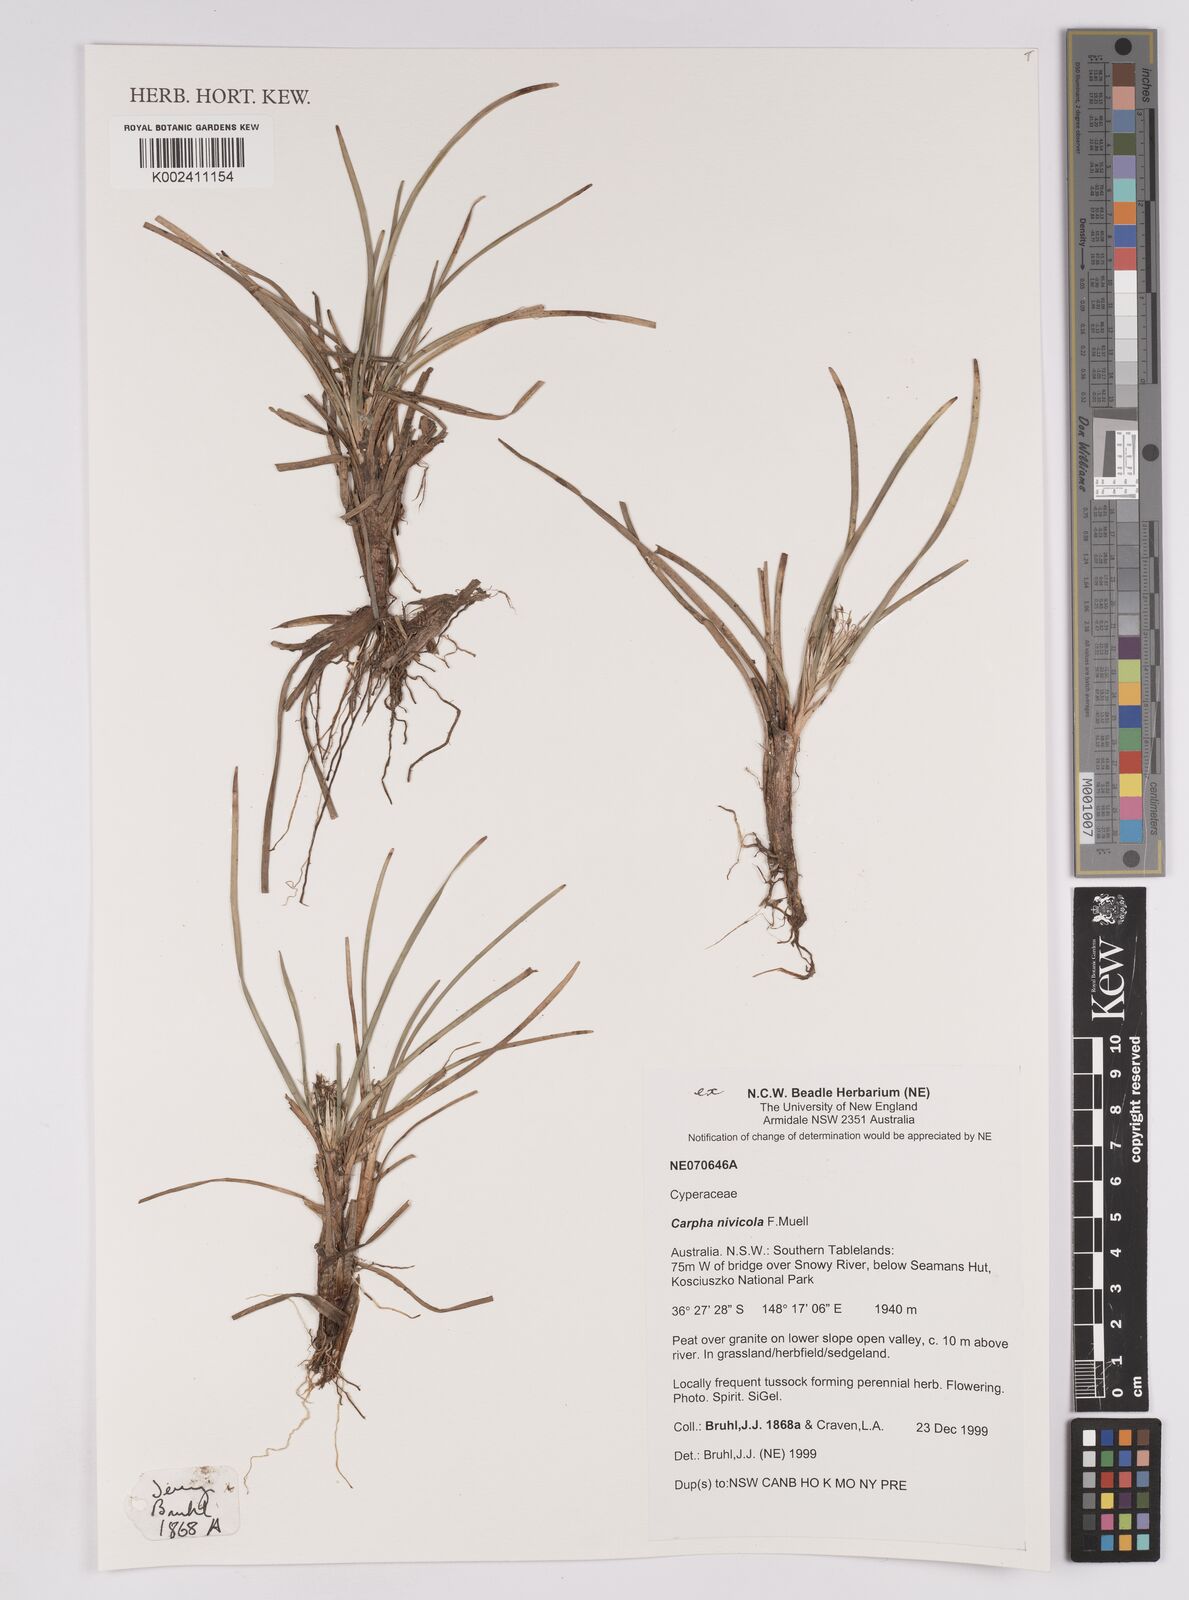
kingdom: Plantae
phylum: Tracheophyta
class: Liliopsida
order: Poales
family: Cyperaceae
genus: Carpha
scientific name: Carpha nivicola
